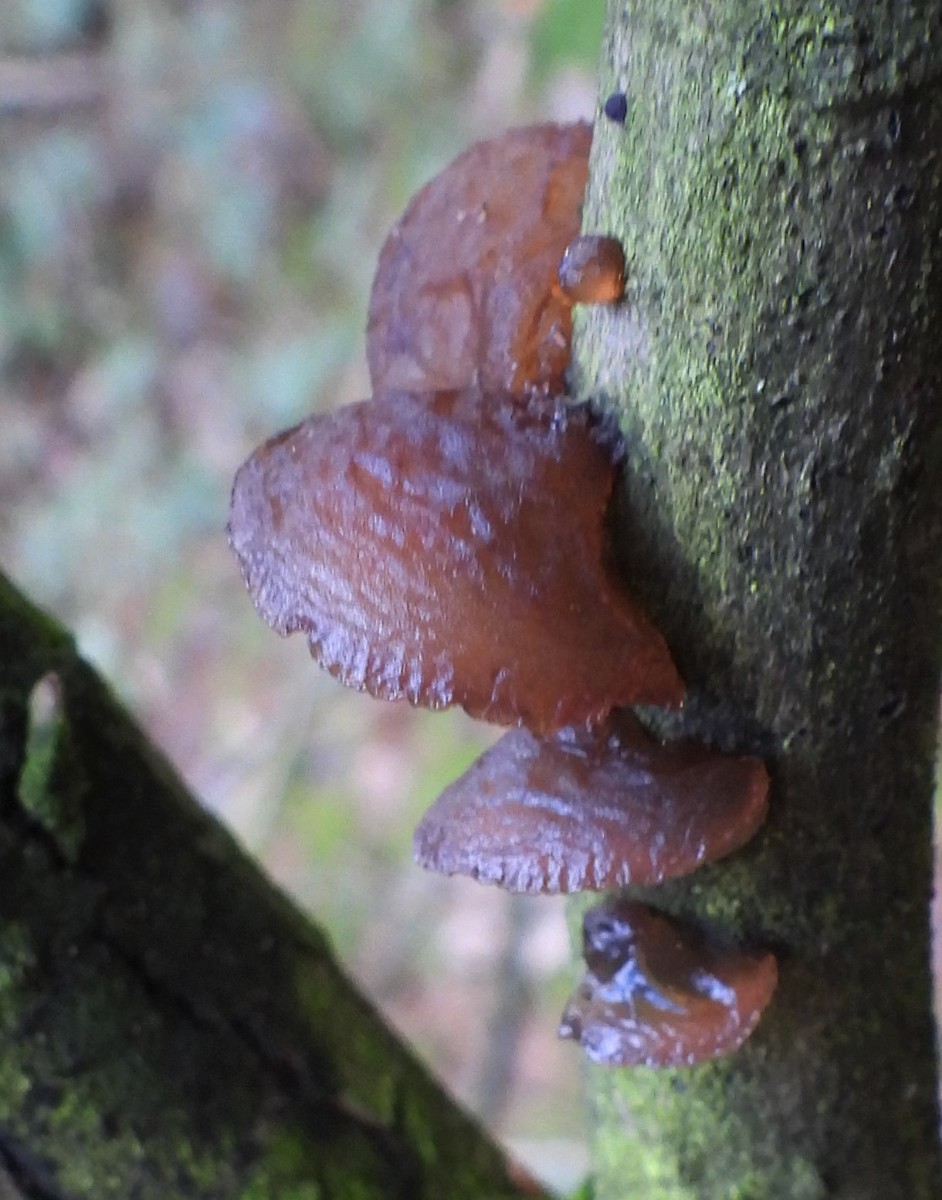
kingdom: Fungi
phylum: Basidiomycota
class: Agaricomycetes
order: Auriculariales
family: Auriculariaceae
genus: Exidia
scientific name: Exidia recisa
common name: pile-bævretop
